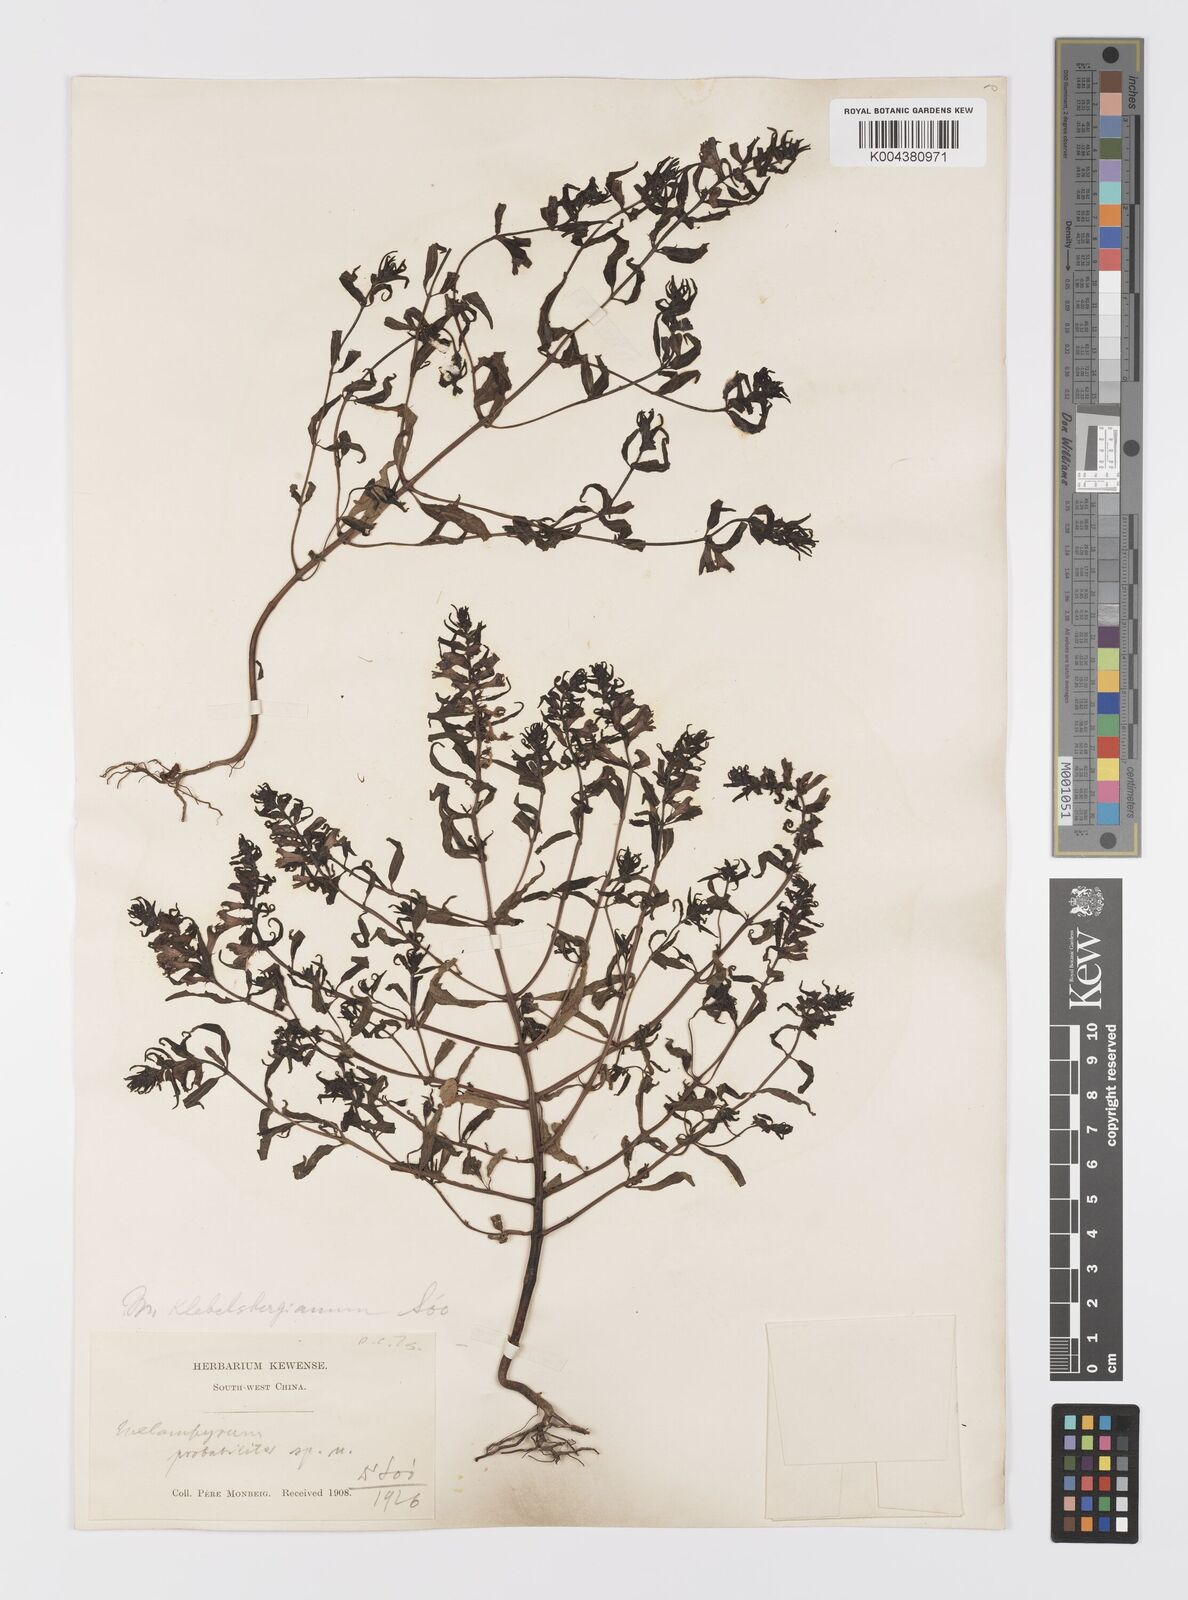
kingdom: Plantae
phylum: Tracheophyta
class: Magnoliopsida
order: Lamiales
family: Orobanchaceae
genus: Melampyrum
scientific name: Melampyrum chinense
